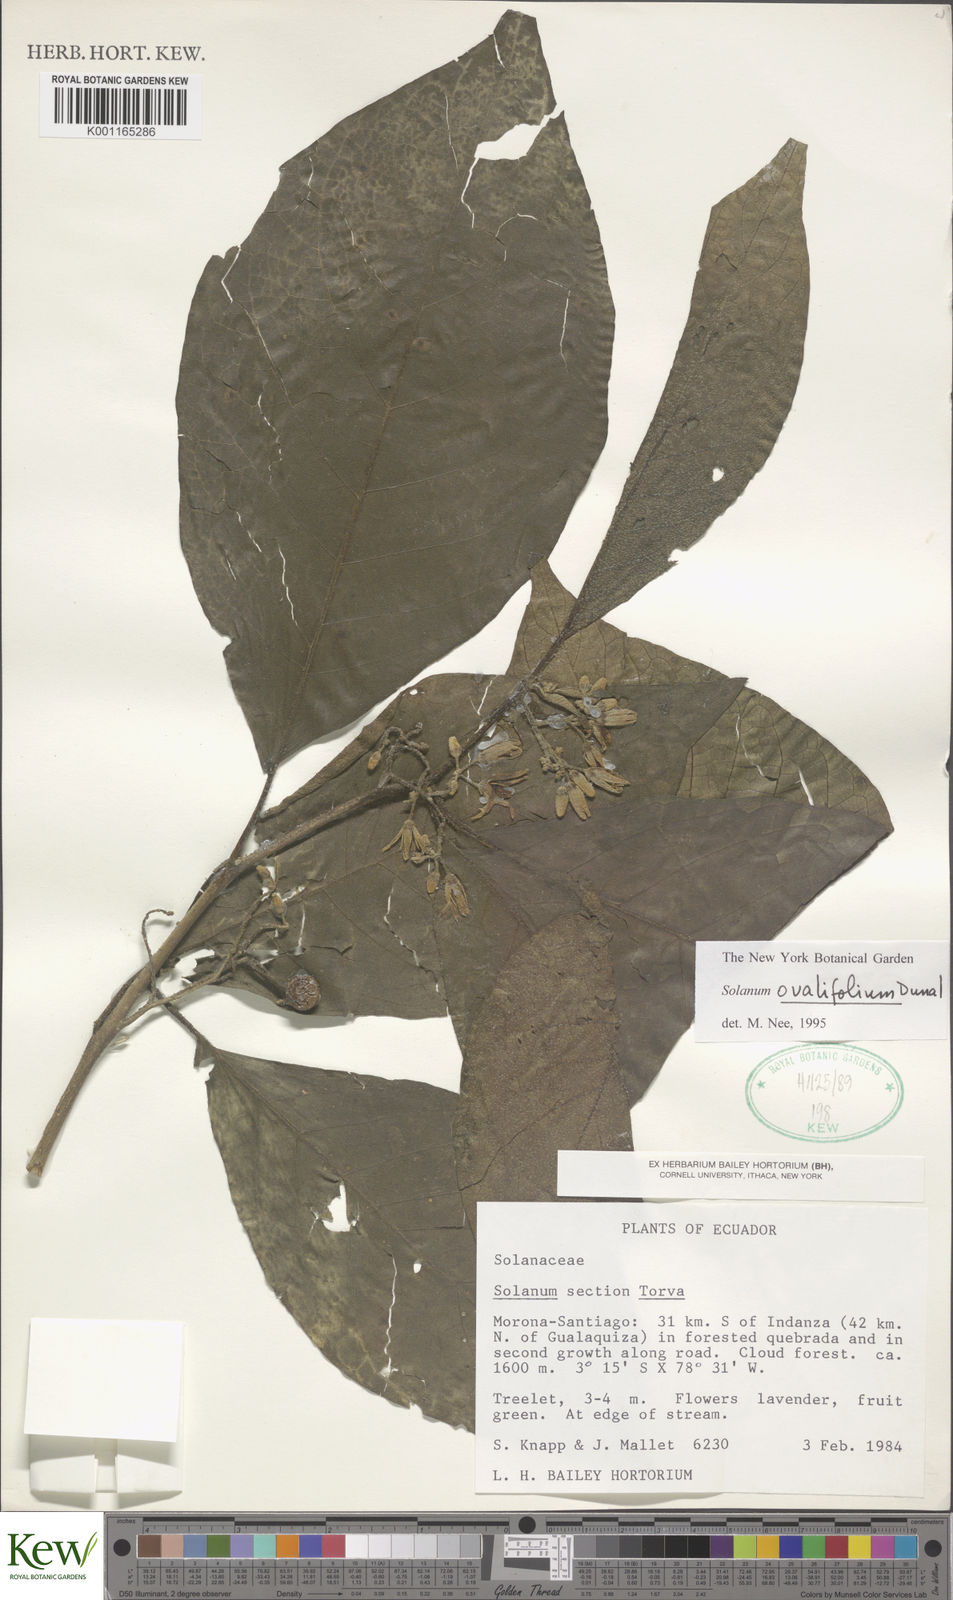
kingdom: Plantae
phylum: Tracheophyta
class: Magnoliopsida
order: Solanales
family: Solanaceae
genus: Solanum
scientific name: Solanum ovalifolium
